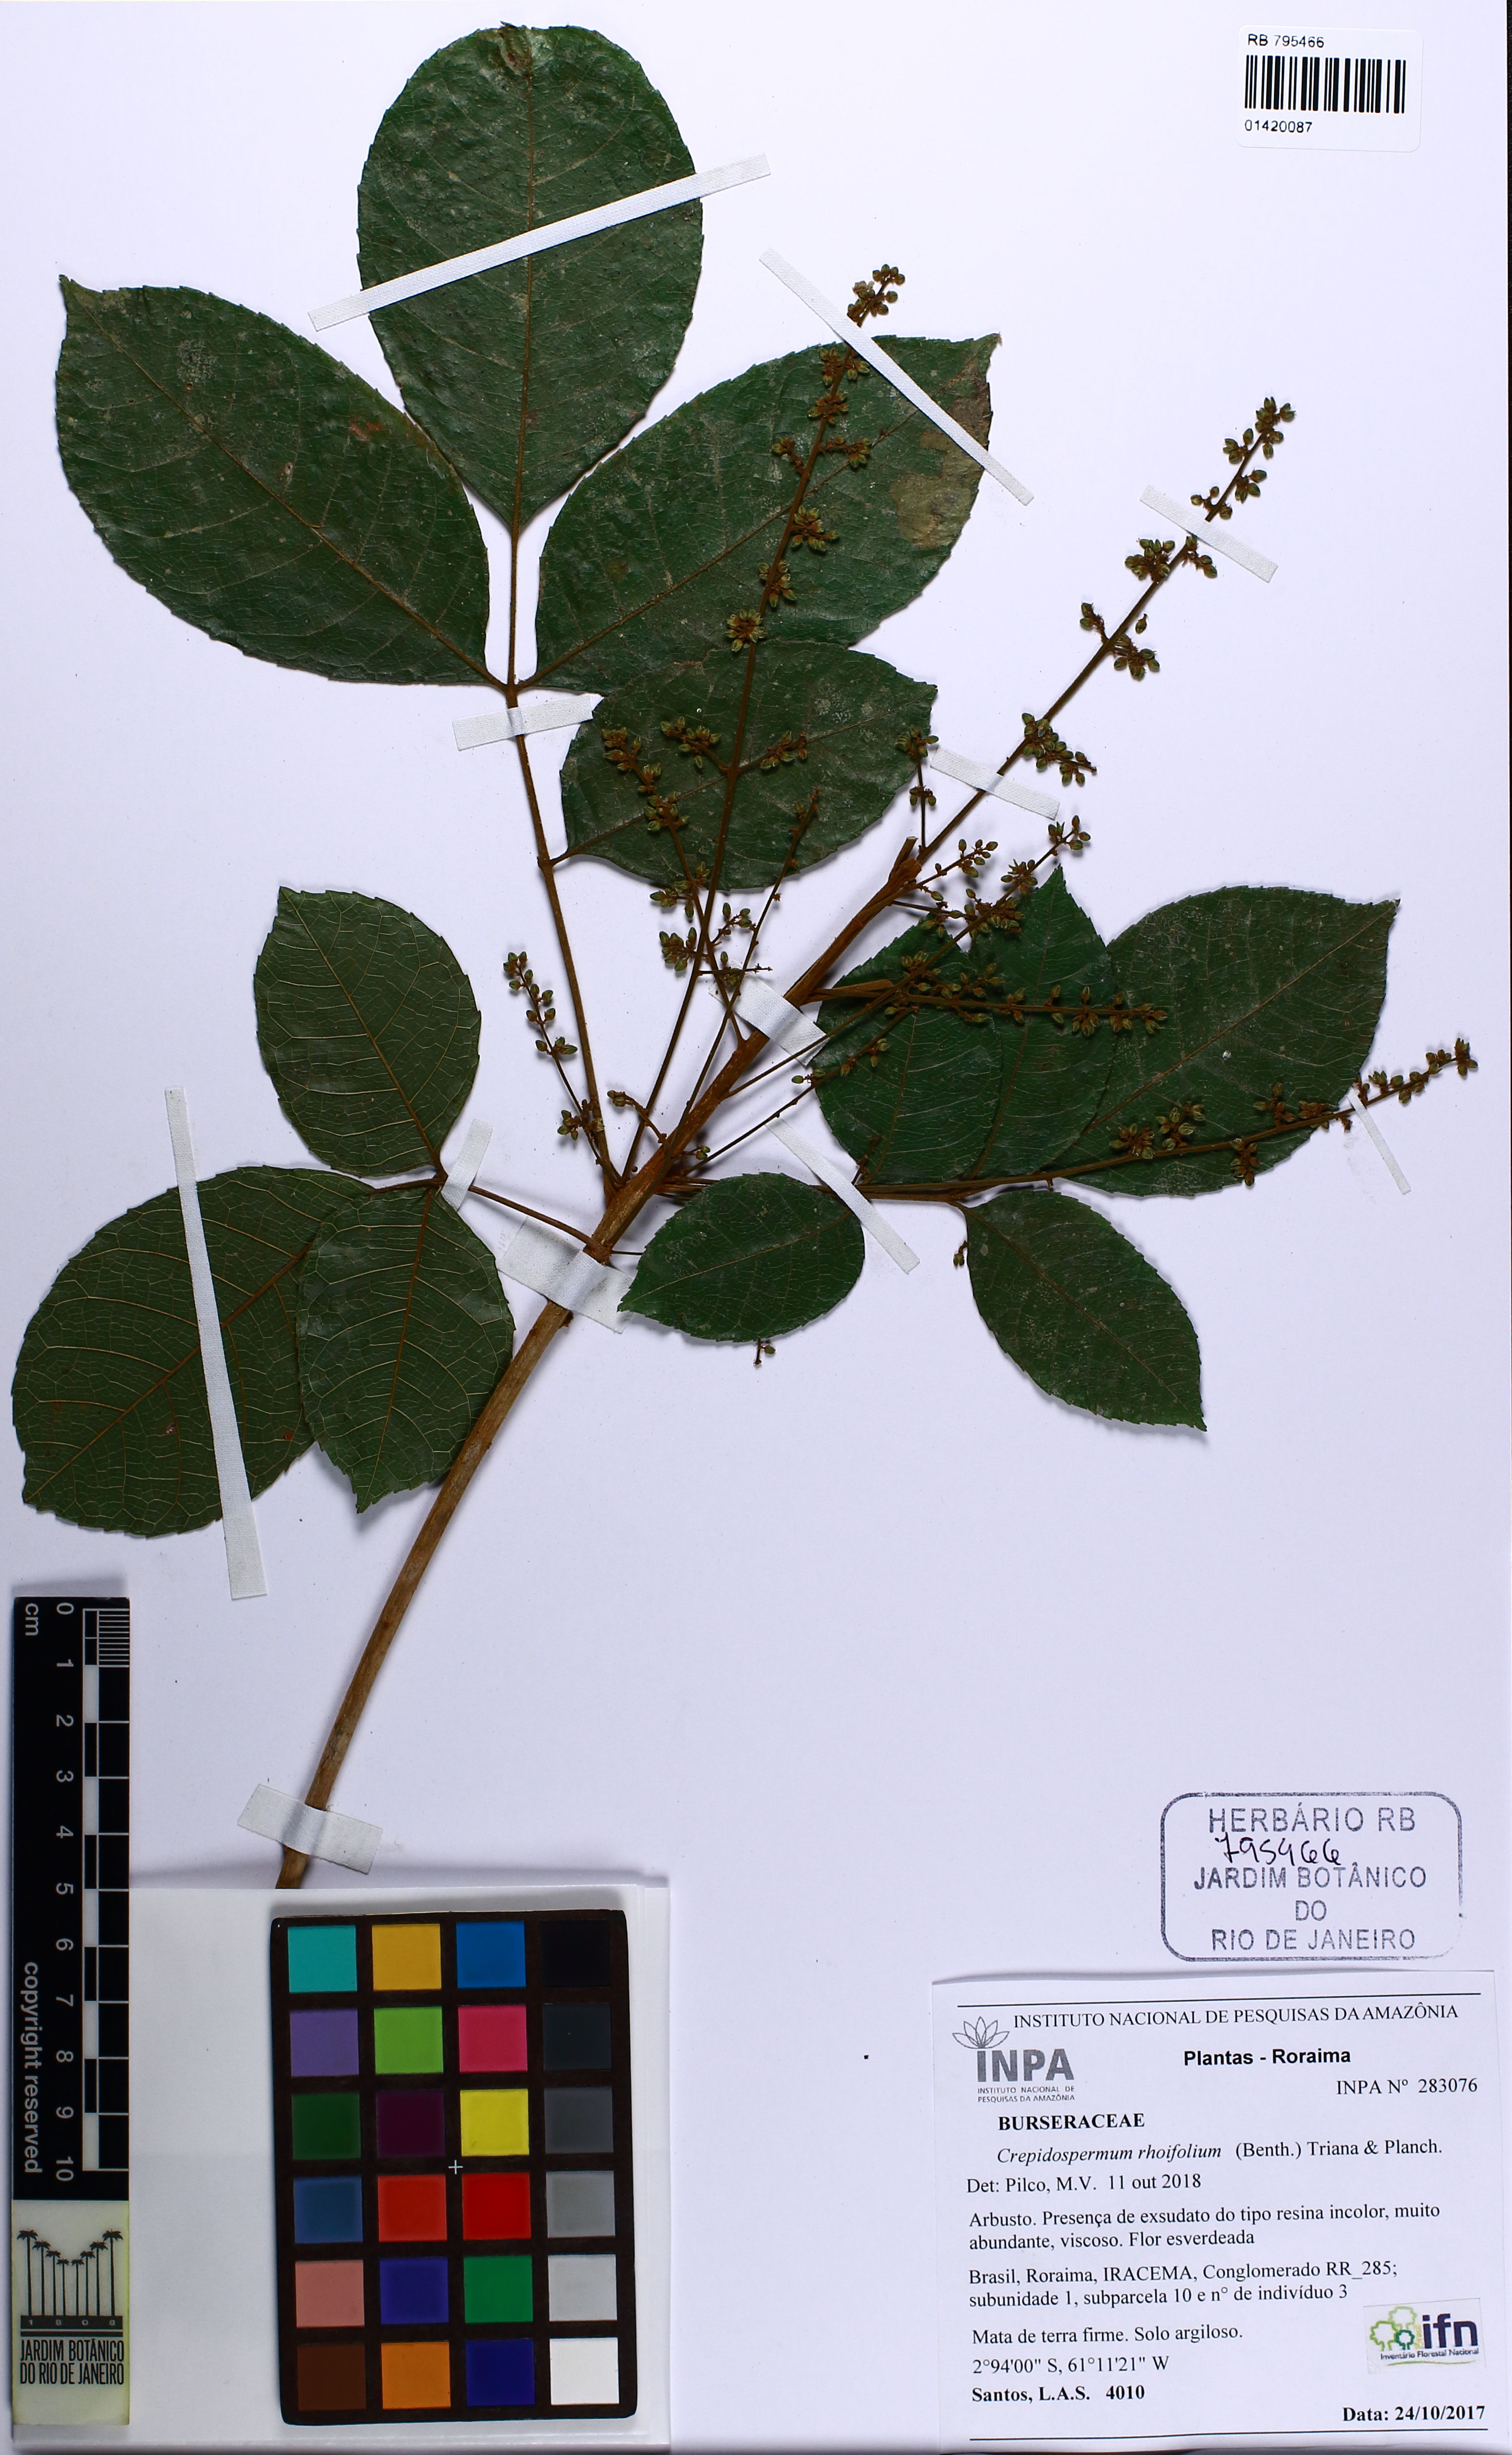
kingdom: Plantae
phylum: Tracheophyta
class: Magnoliopsida
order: Sapindales
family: Burseraceae
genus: Crepidospermum
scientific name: Crepidospermum rhoifolium
